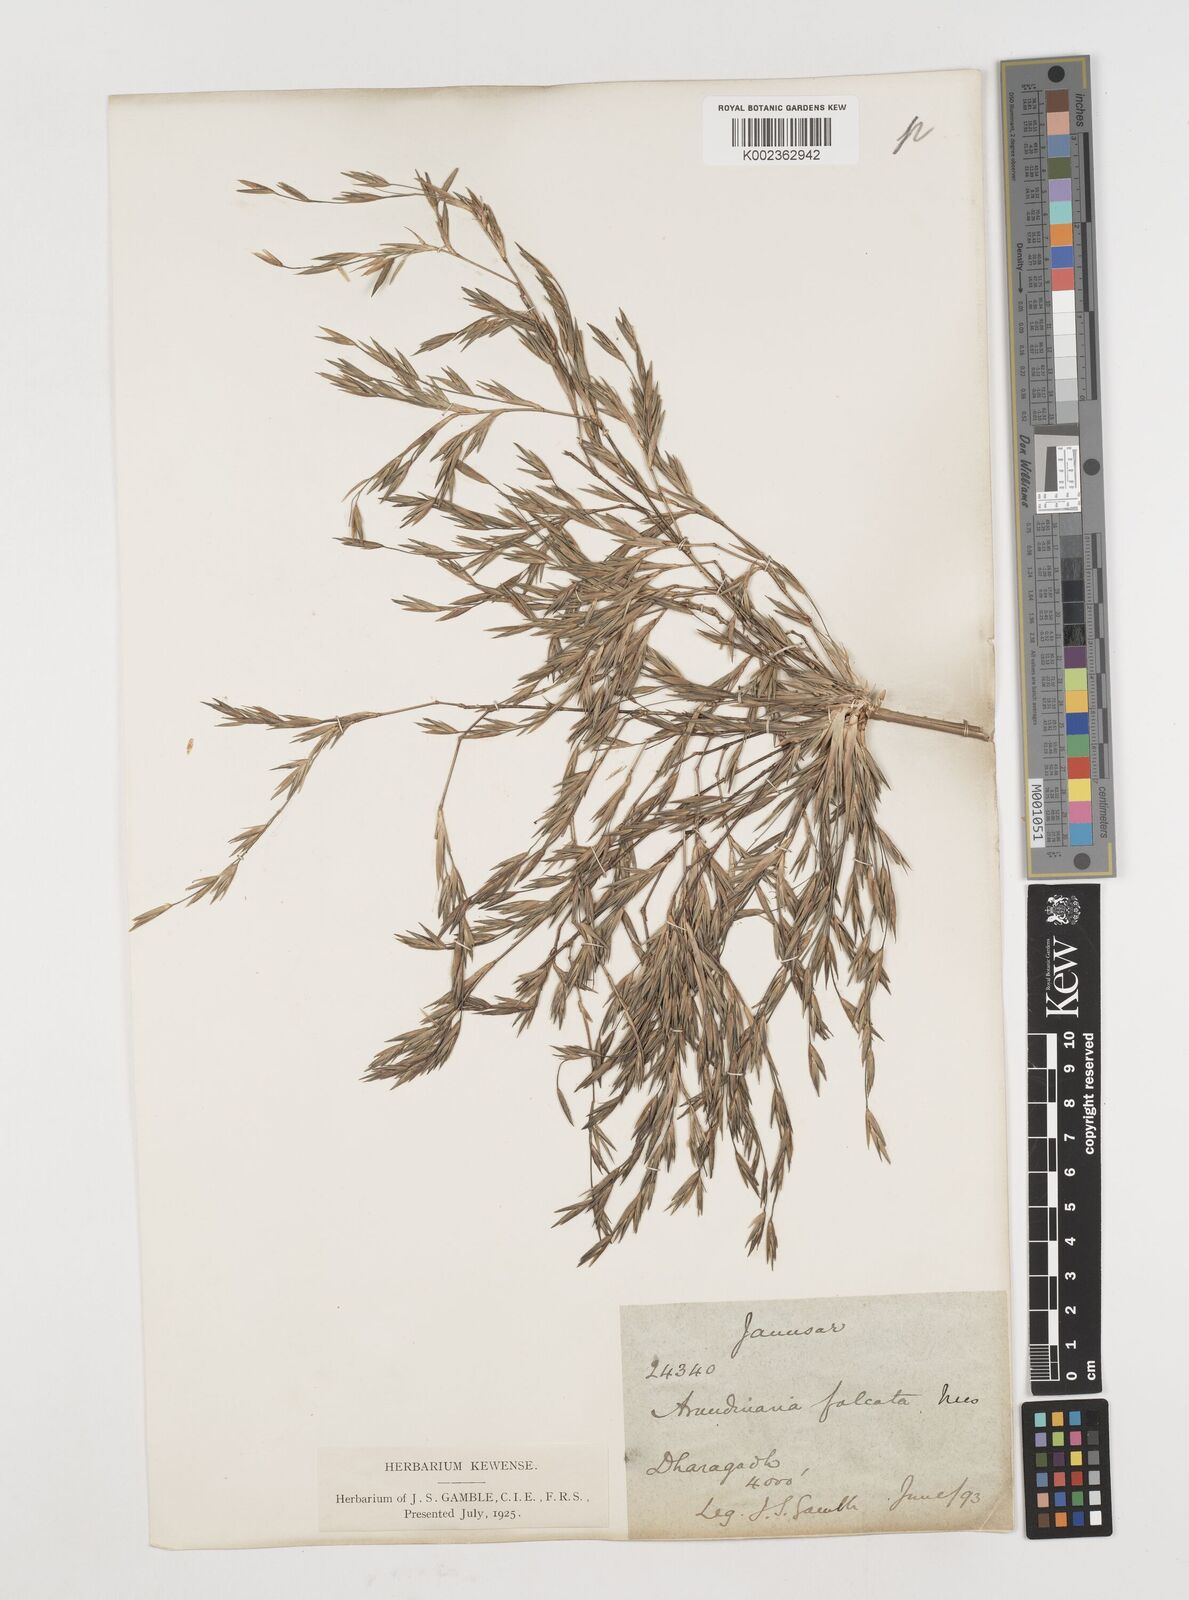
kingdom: Plantae
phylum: Tracheophyta
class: Liliopsida
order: Poales
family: Poaceae
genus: Drepanostachyum
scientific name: Drepanostachyum falcatum
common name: Himalayan bamboo
